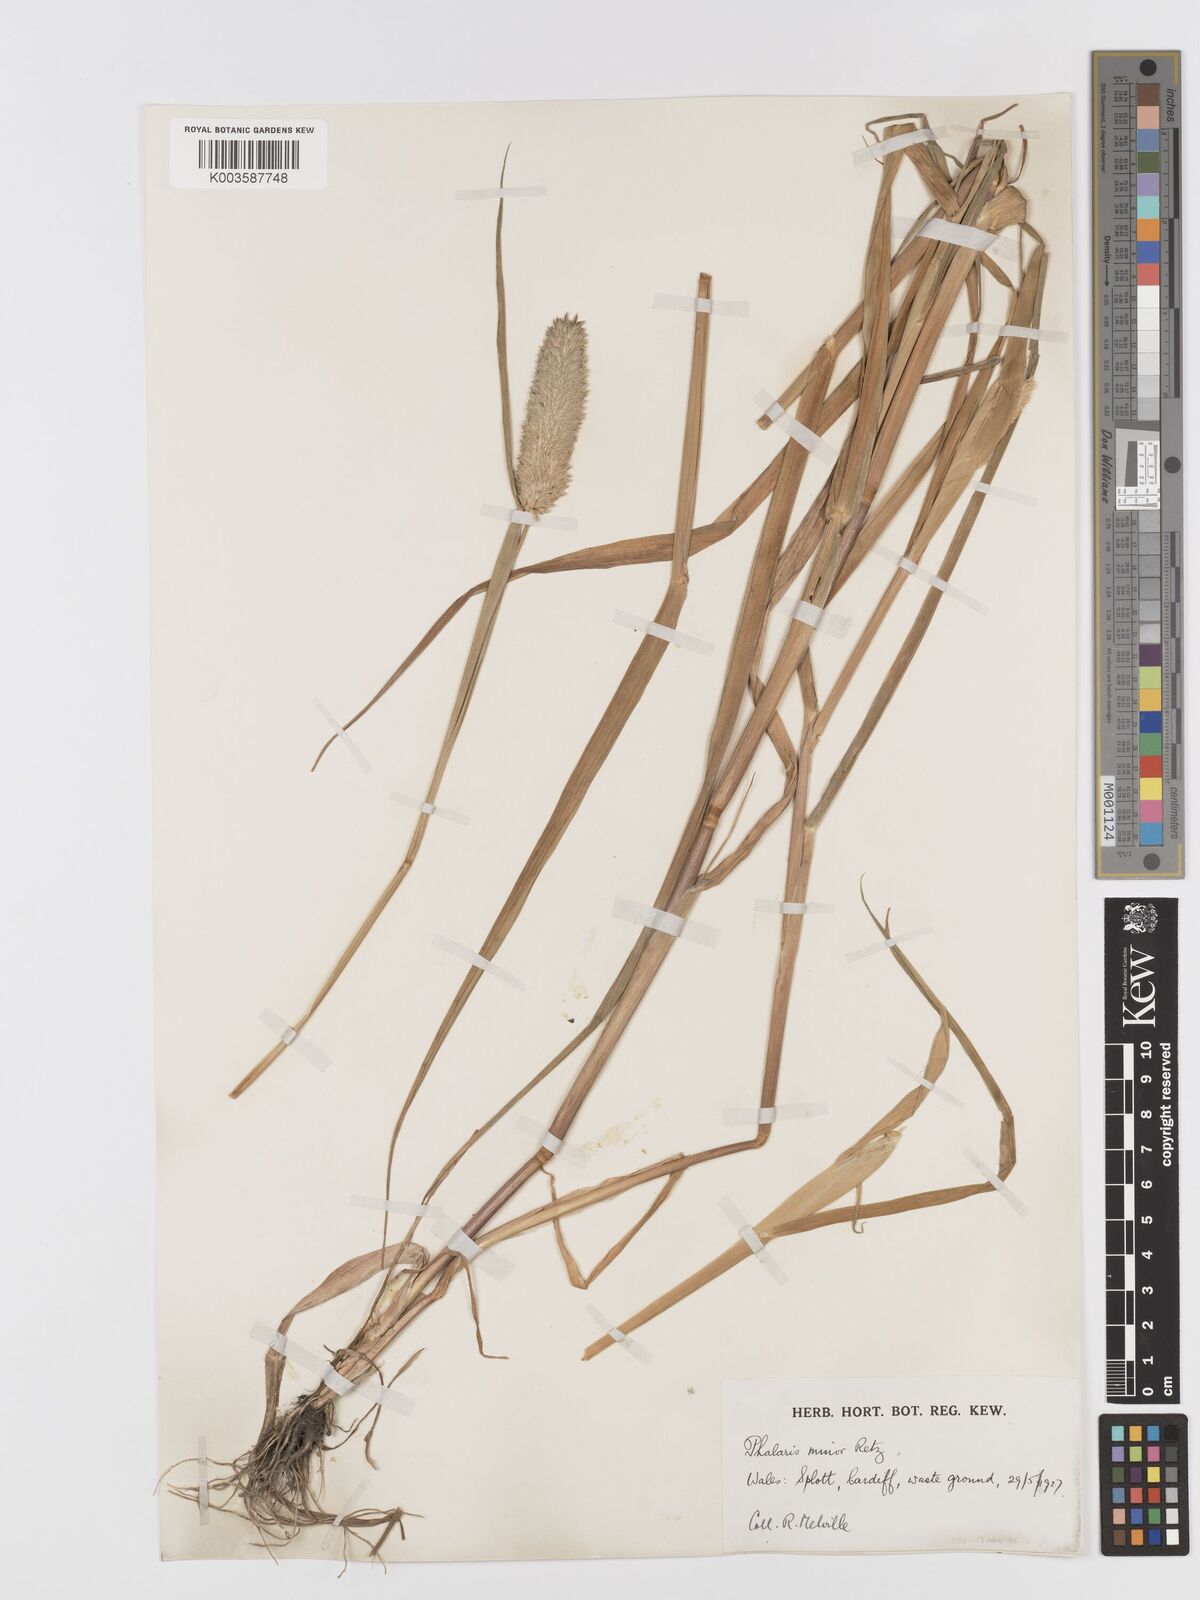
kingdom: Plantae
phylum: Tracheophyta
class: Liliopsida
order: Poales
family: Poaceae
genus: Phalaris
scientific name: Phalaris minor
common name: Littleseed canarygrass
